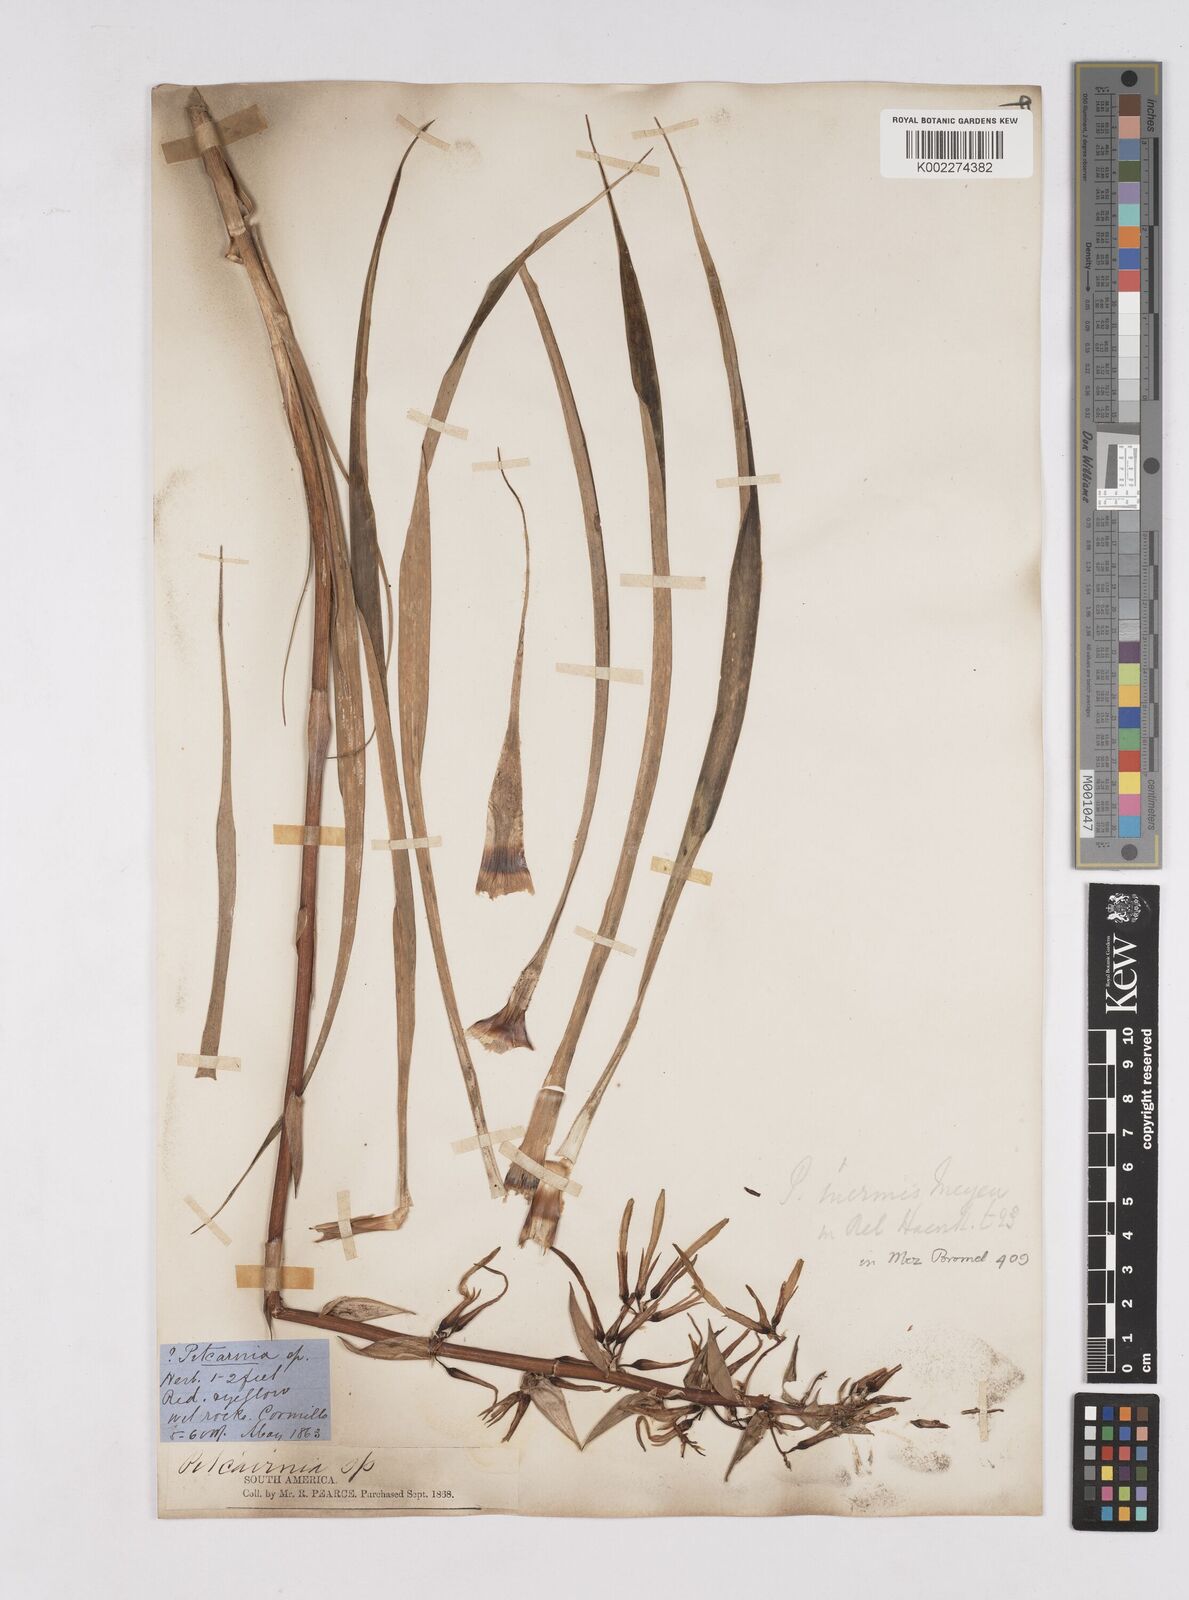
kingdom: Plantae
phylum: Tracheophyta
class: Liliopsida
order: Poales
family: Bromeliaceae
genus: Pitcairnia
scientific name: Pitcairnia inermis
